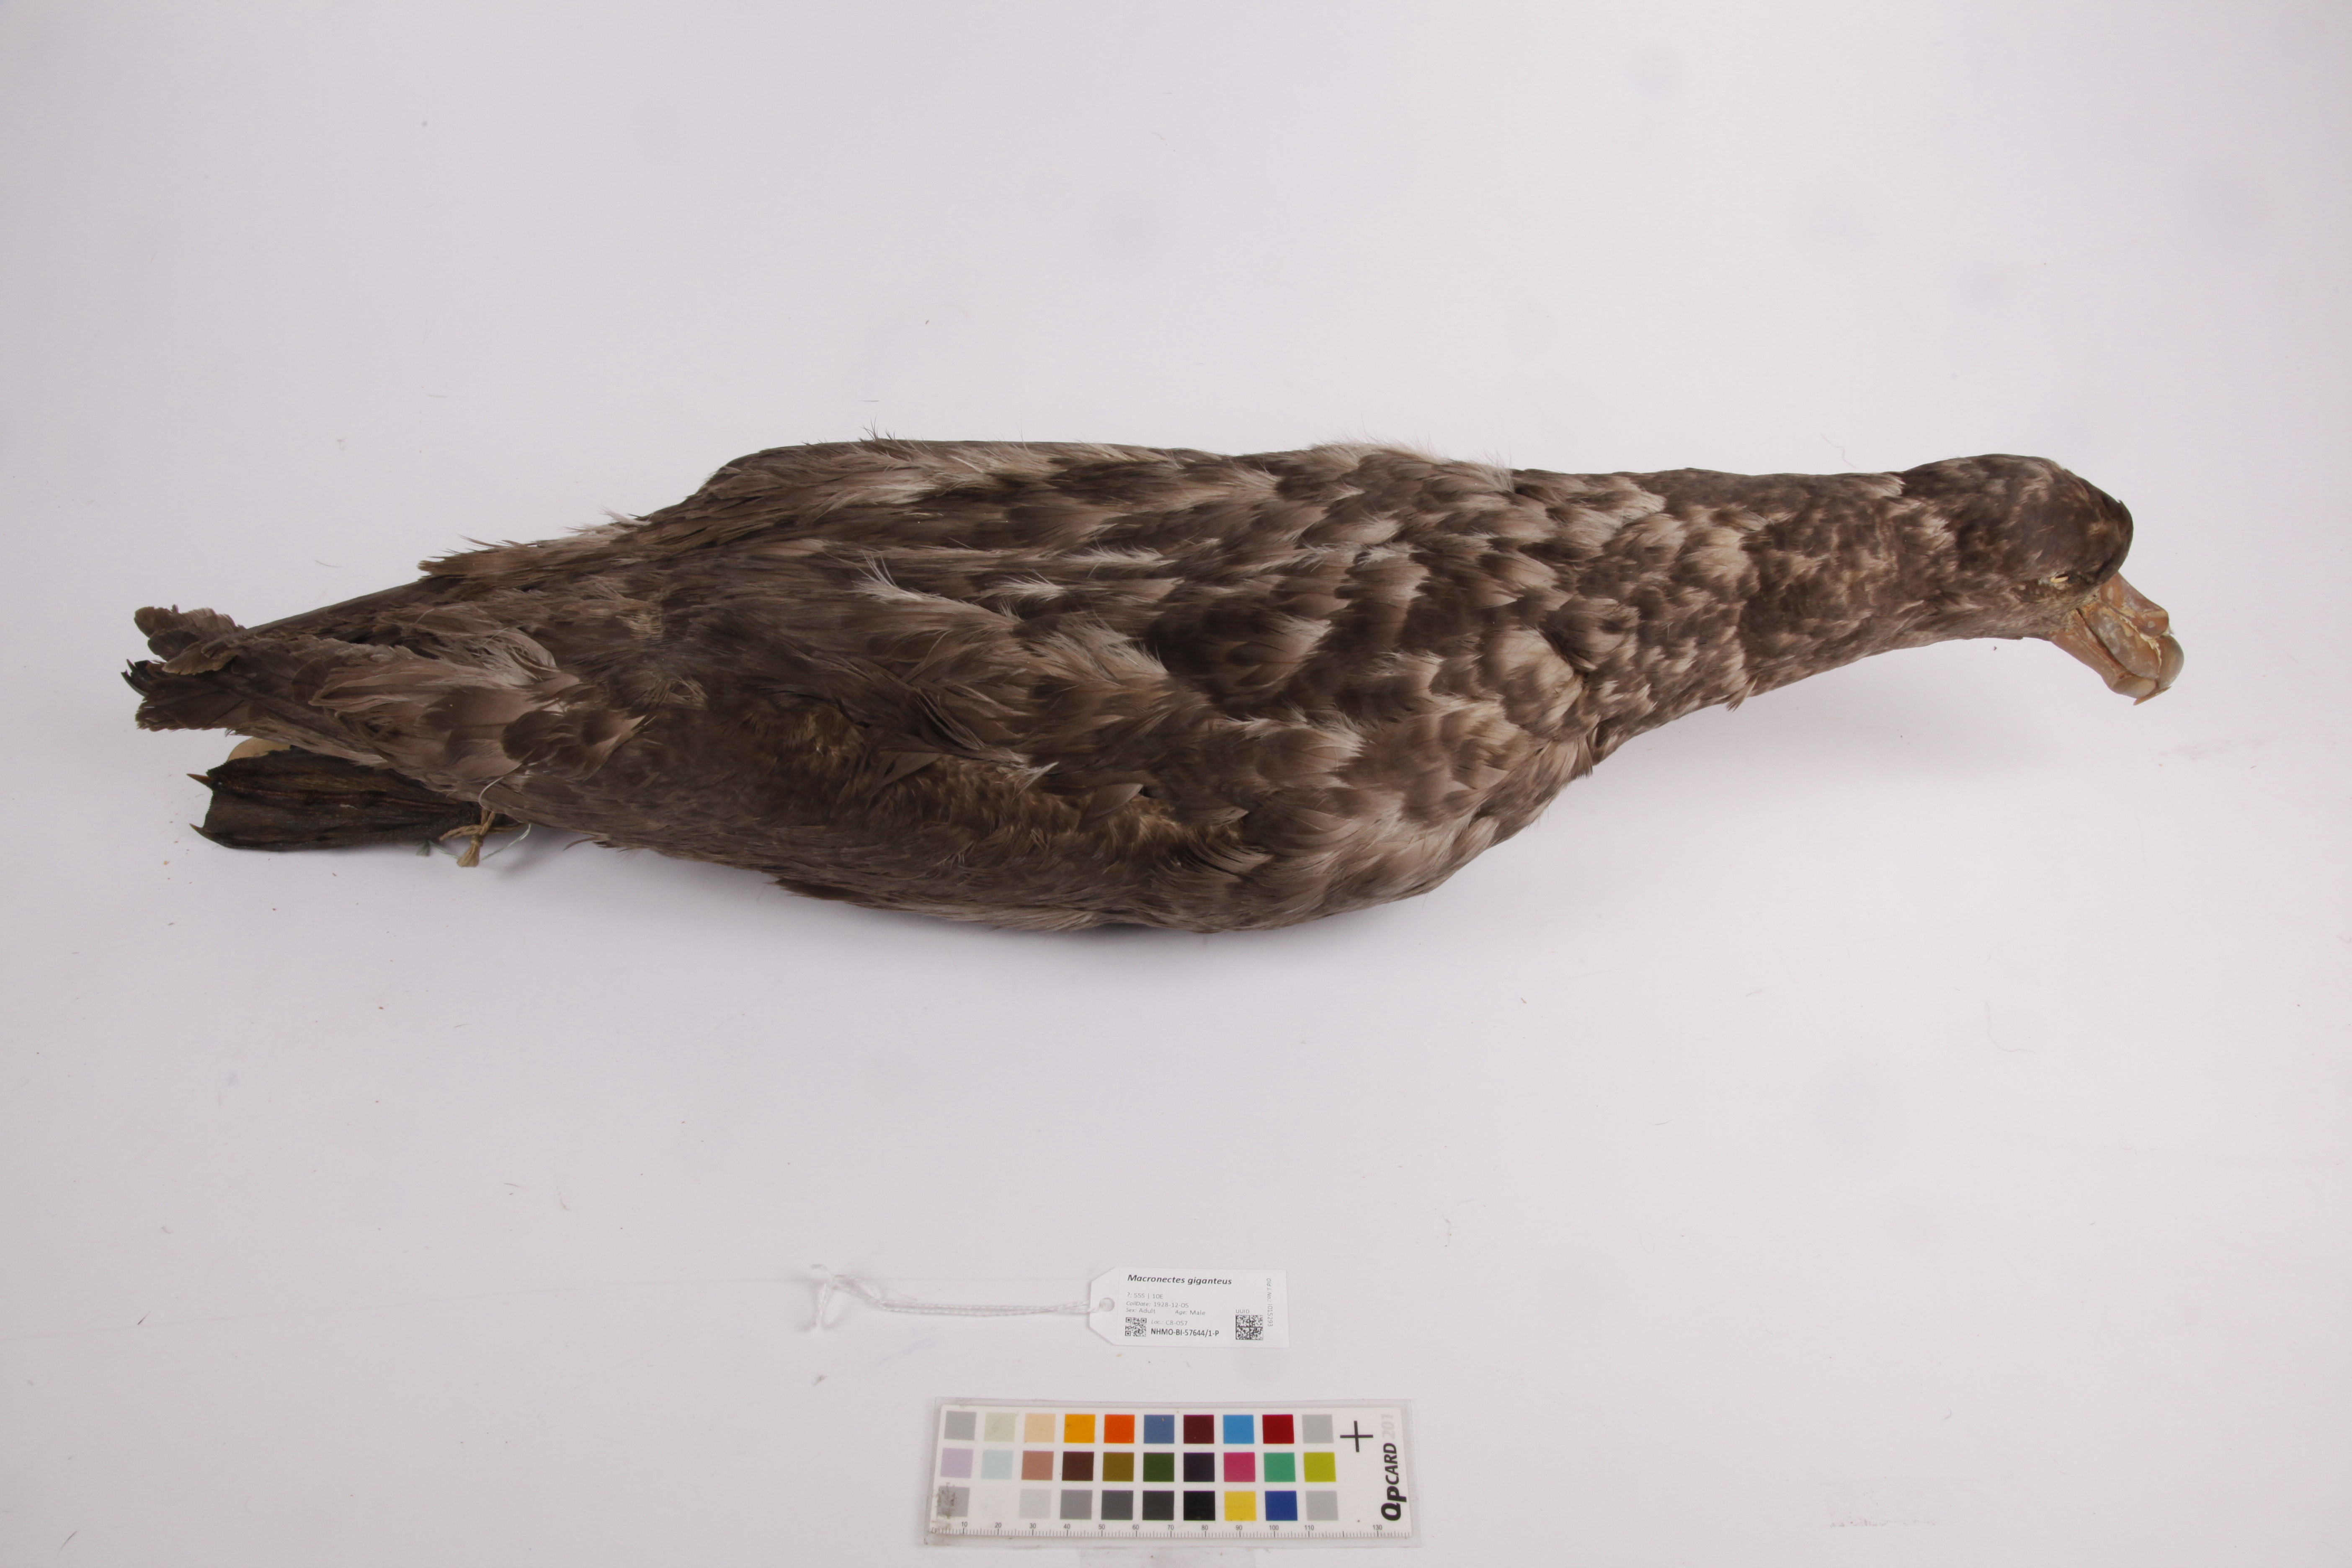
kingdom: Animalia
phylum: Chordata
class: Aves
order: Procellariiformes
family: Procellariidae
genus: Macronectes
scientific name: Macronectes giganteus
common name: Southern giant petrel
